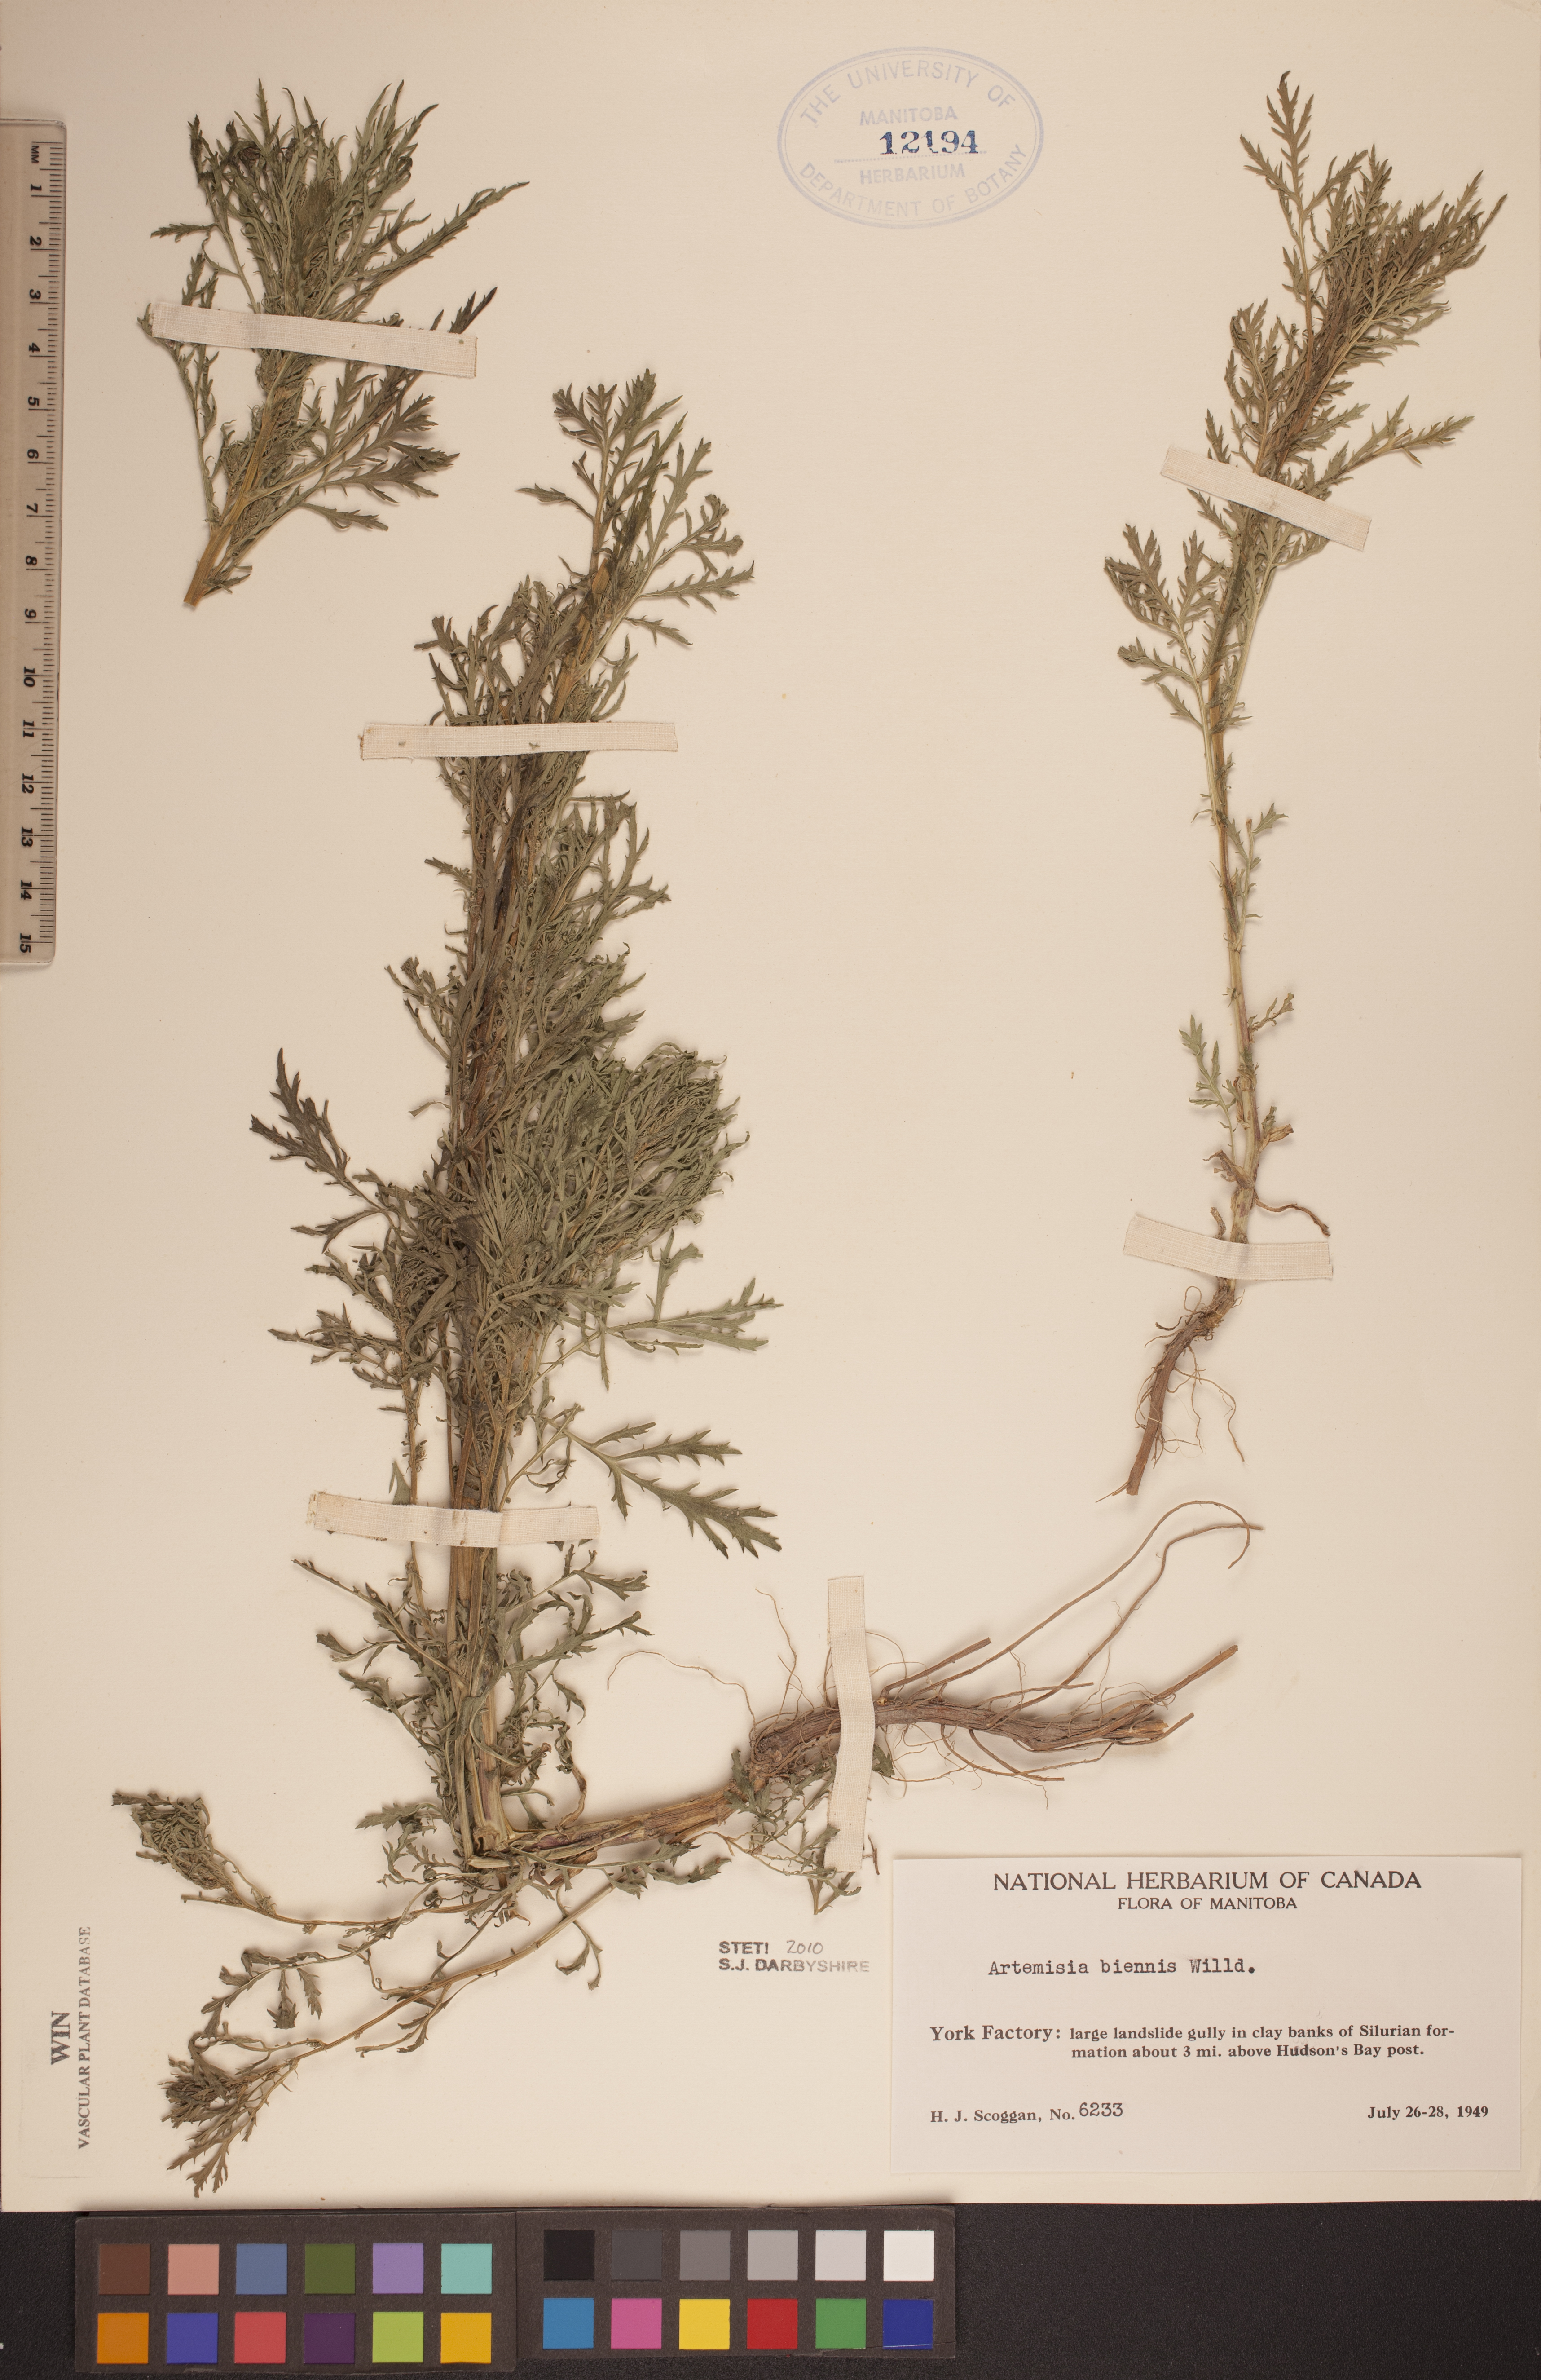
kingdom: Plantae
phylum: Tracheophyta
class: Magnoliopsida
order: Asterales
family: Asteraceae
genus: Artemisia
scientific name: Artemisia biennis
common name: Biennial wormwood
